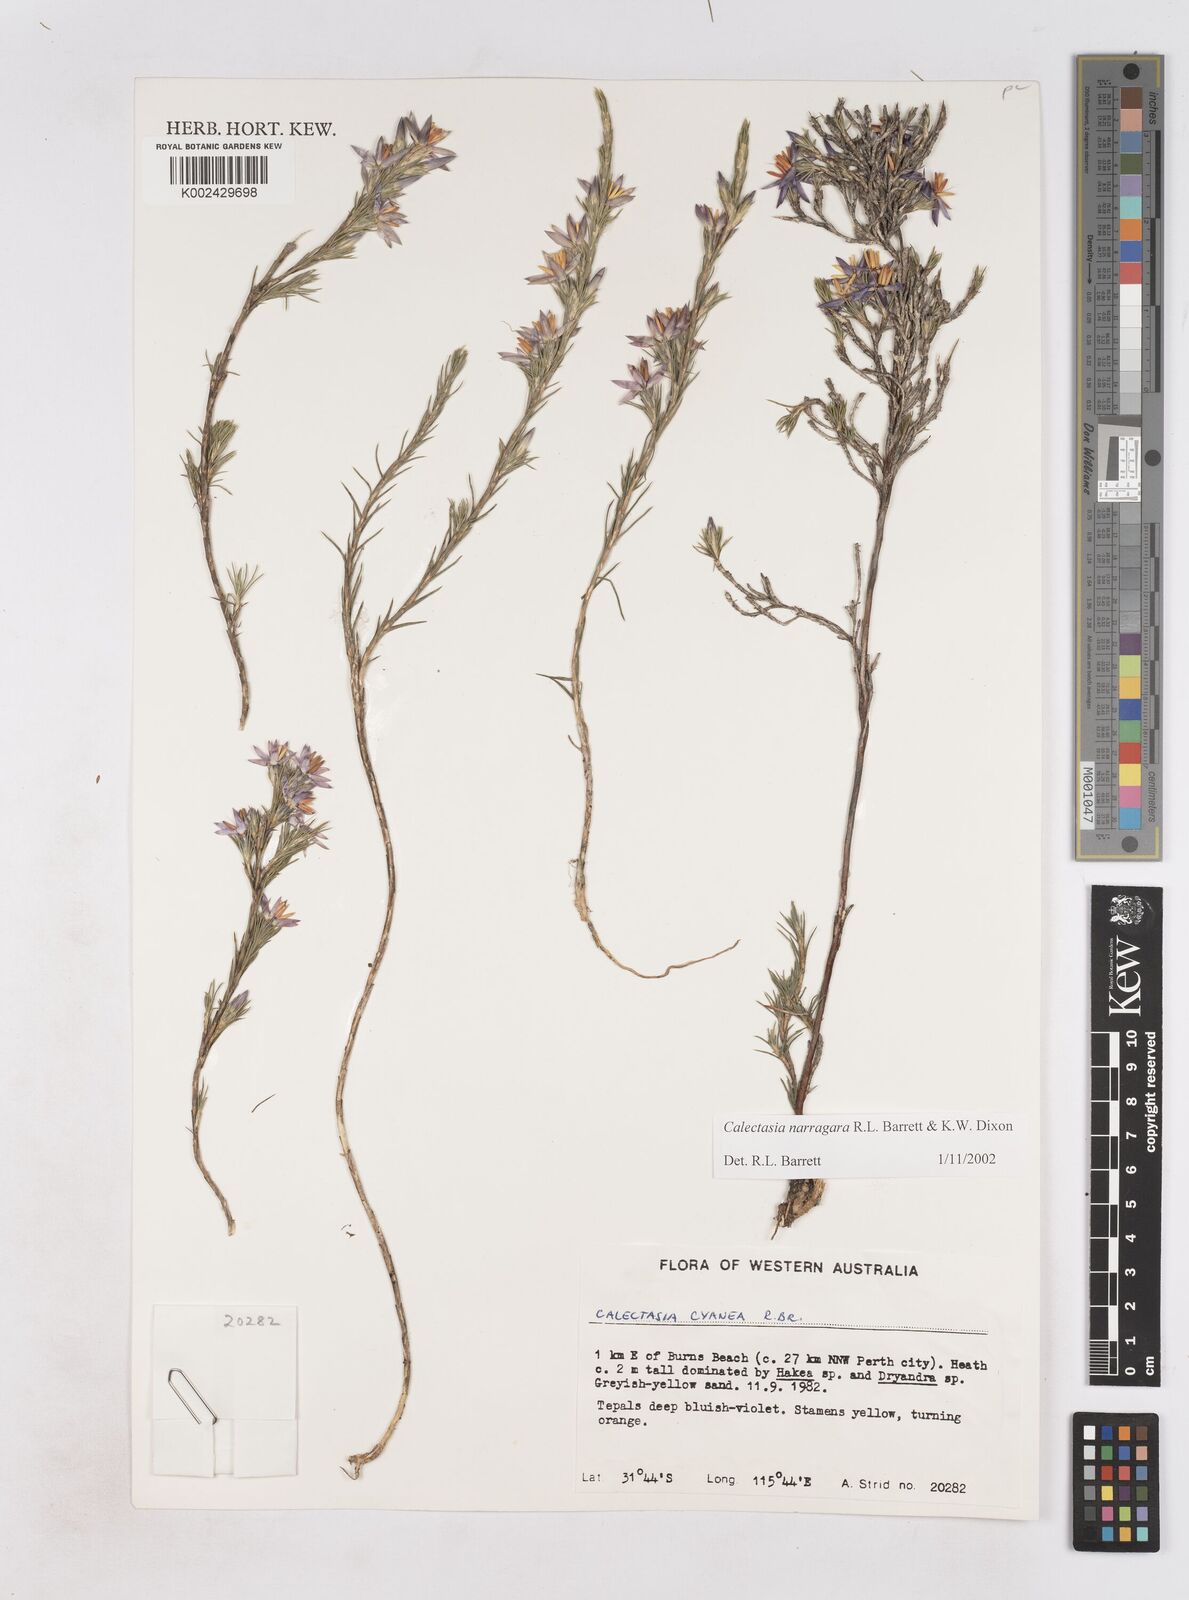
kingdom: Plantae
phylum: Tracheophyta
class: Liliopsida
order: Arecales
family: Dasypogonaceae
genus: Calectasia
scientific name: Calectasia narragara
